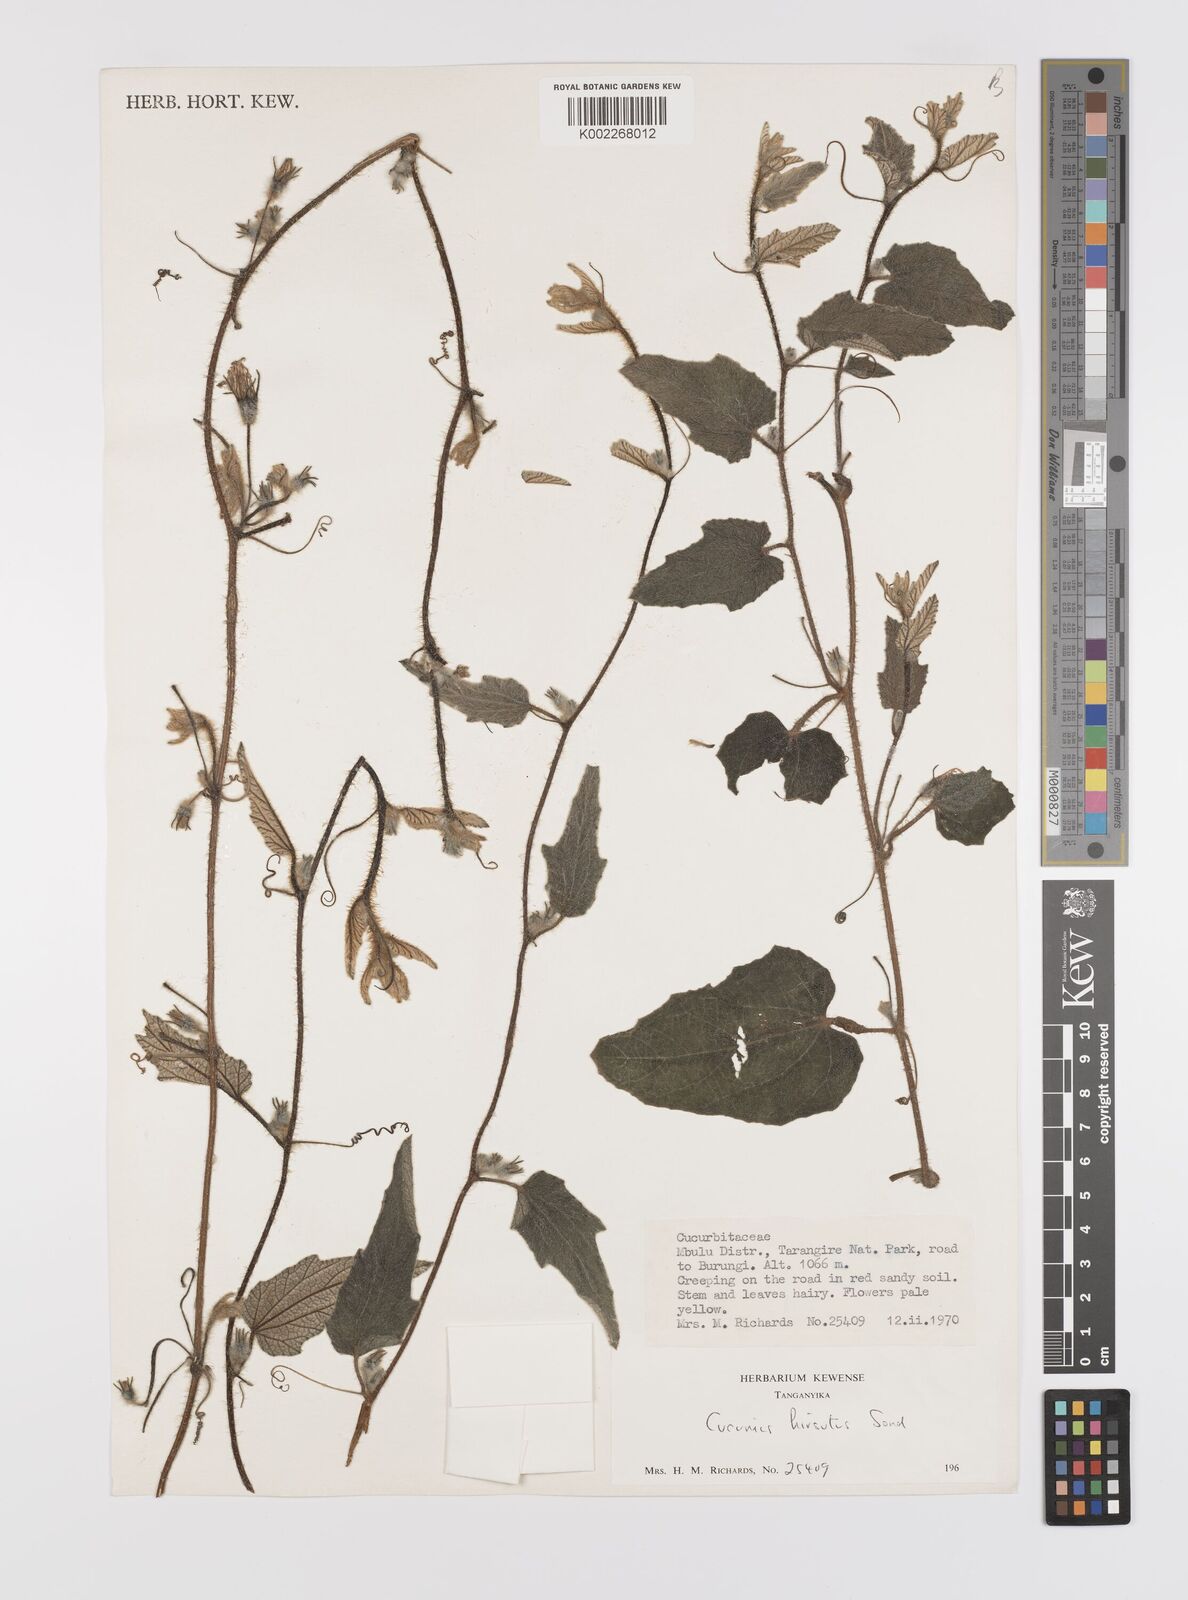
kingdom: Plantae
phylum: Tracheophyta
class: Magnoliopsida
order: Cucurbitales
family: Cucurbitaceae
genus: Cucumis
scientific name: Cucumis hirsutus
